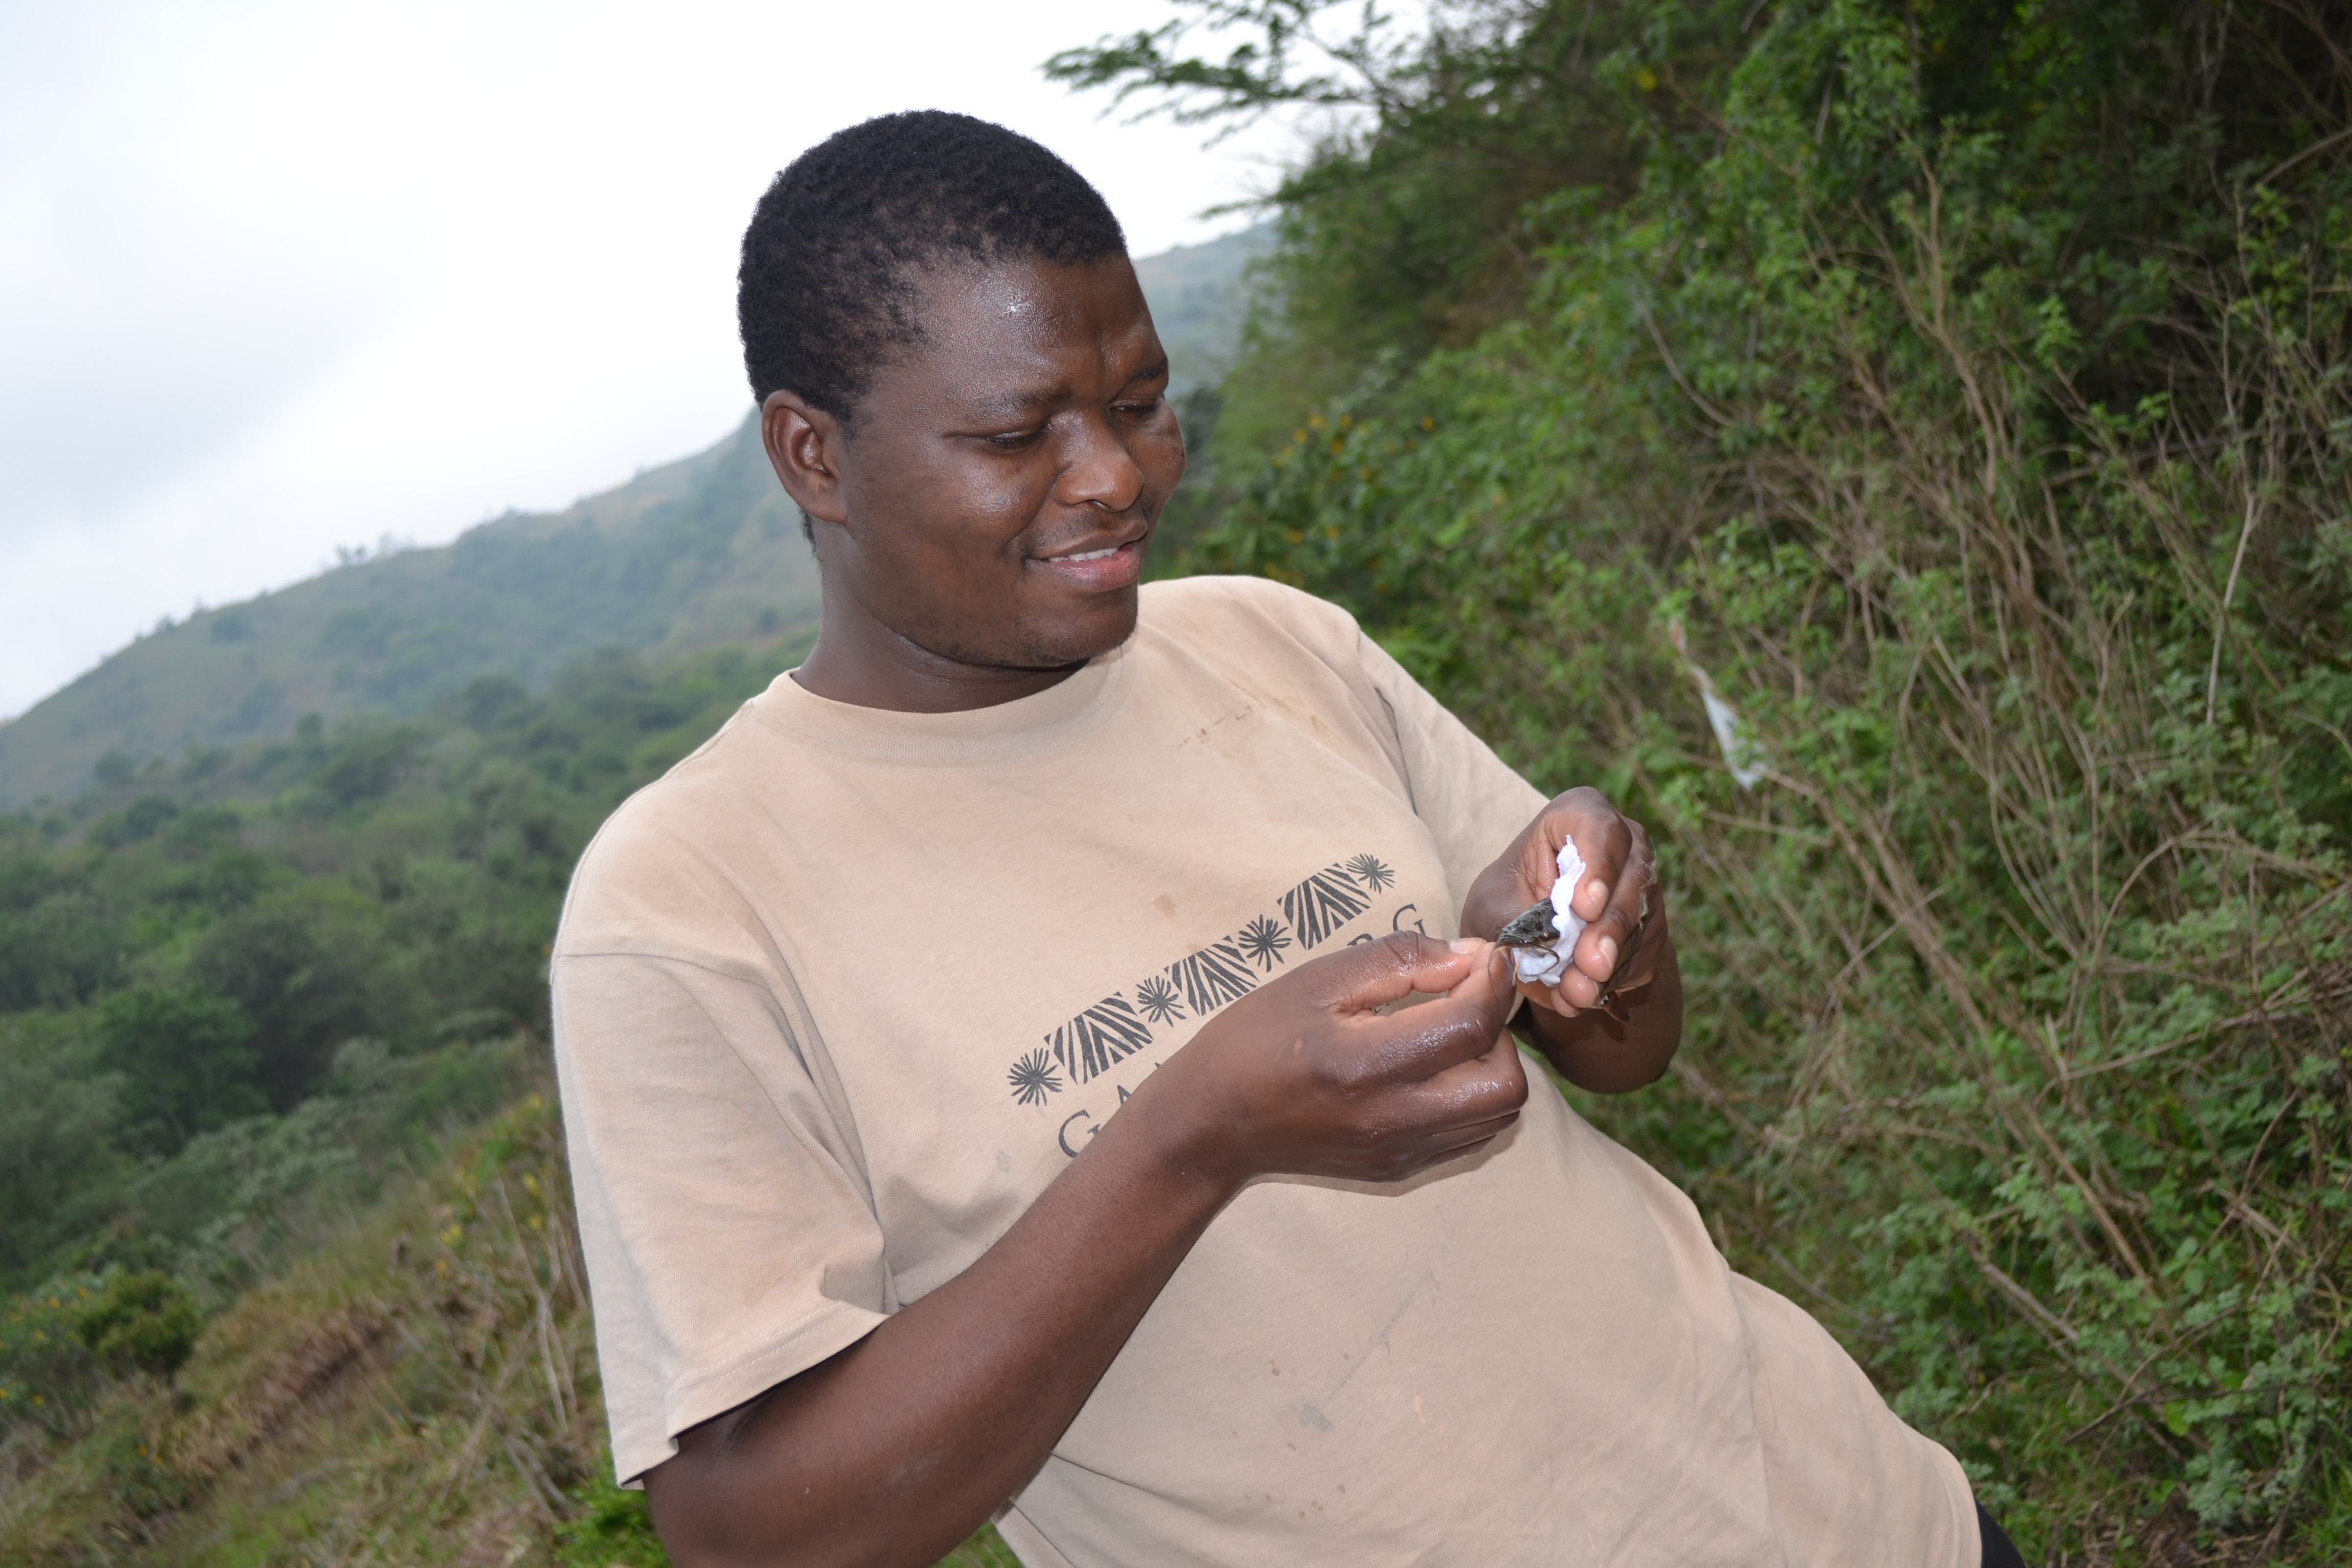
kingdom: Animalia
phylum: Chordata
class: Amphibia
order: Anura
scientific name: Anura
